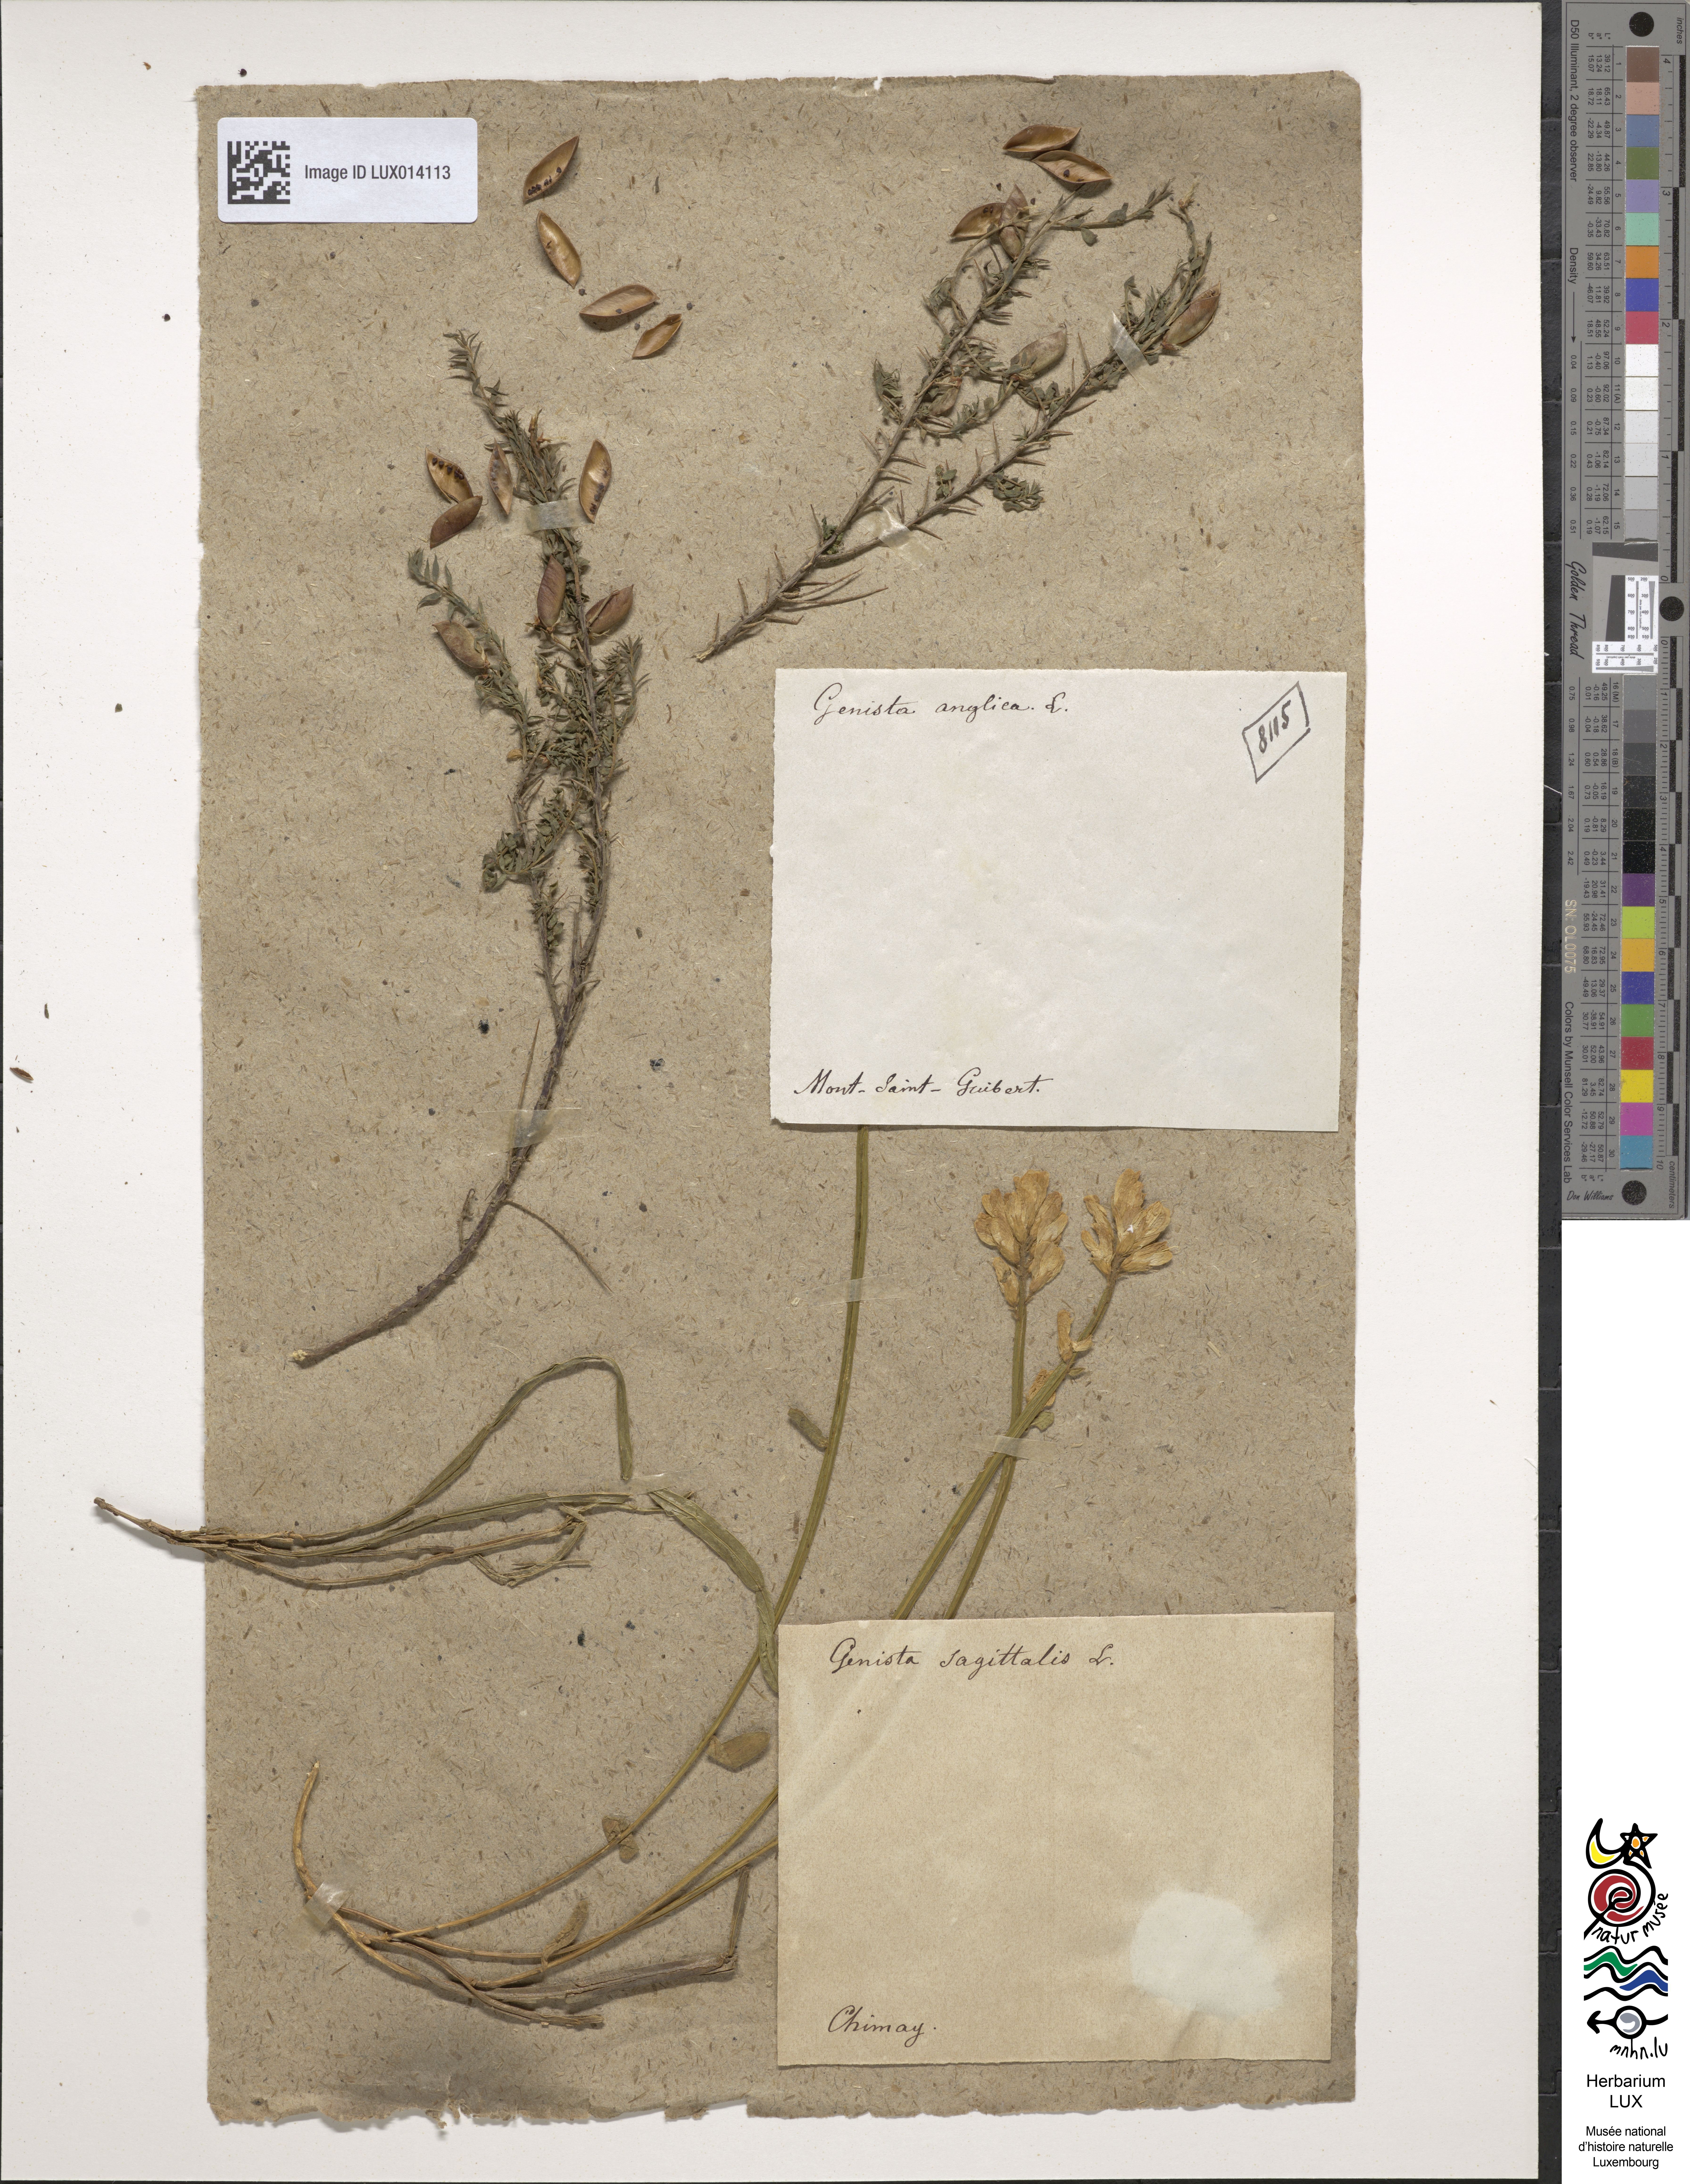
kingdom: Plantae
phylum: Tracheophyta
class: Magnoliopsida
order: Fabales
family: Fabaceae
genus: Genista
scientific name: Genista anglica
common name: Petty whin
